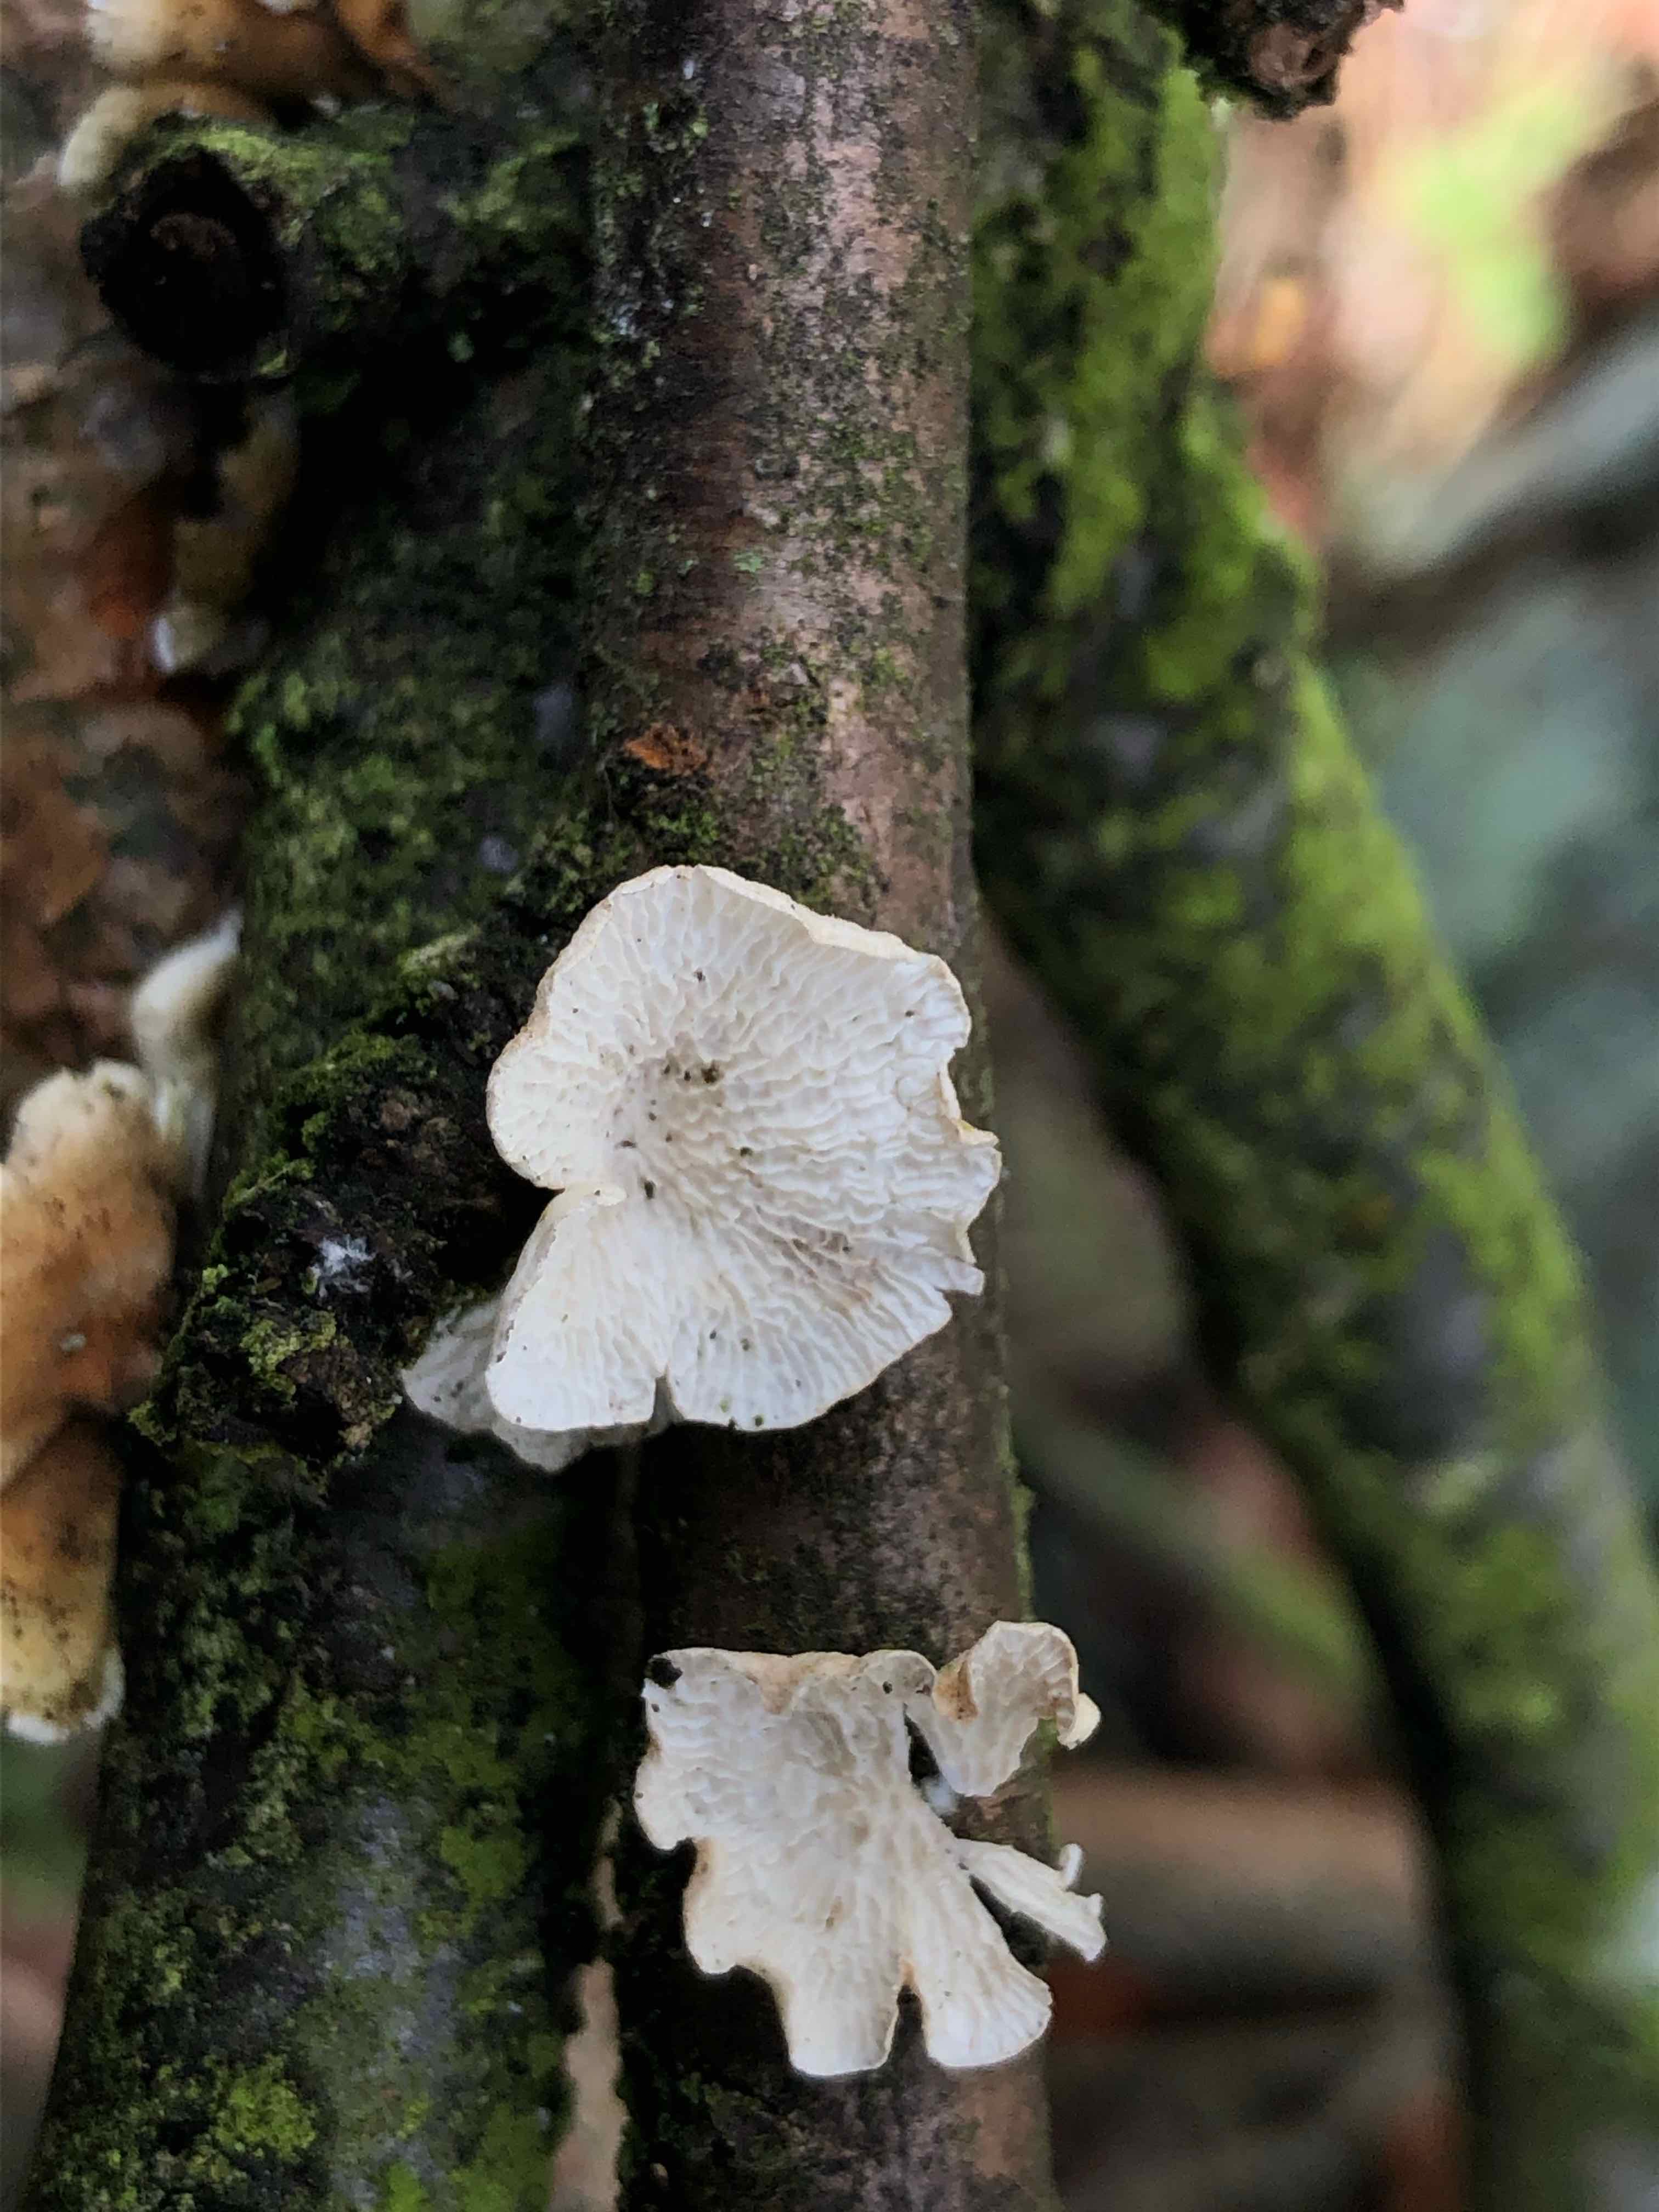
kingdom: Fungi
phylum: Basidiomycota
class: Agaricomycetes
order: Amylocorticiales
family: Amylocorticiaceae
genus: Plicaturopsis
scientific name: Plicaturopsis crispa
